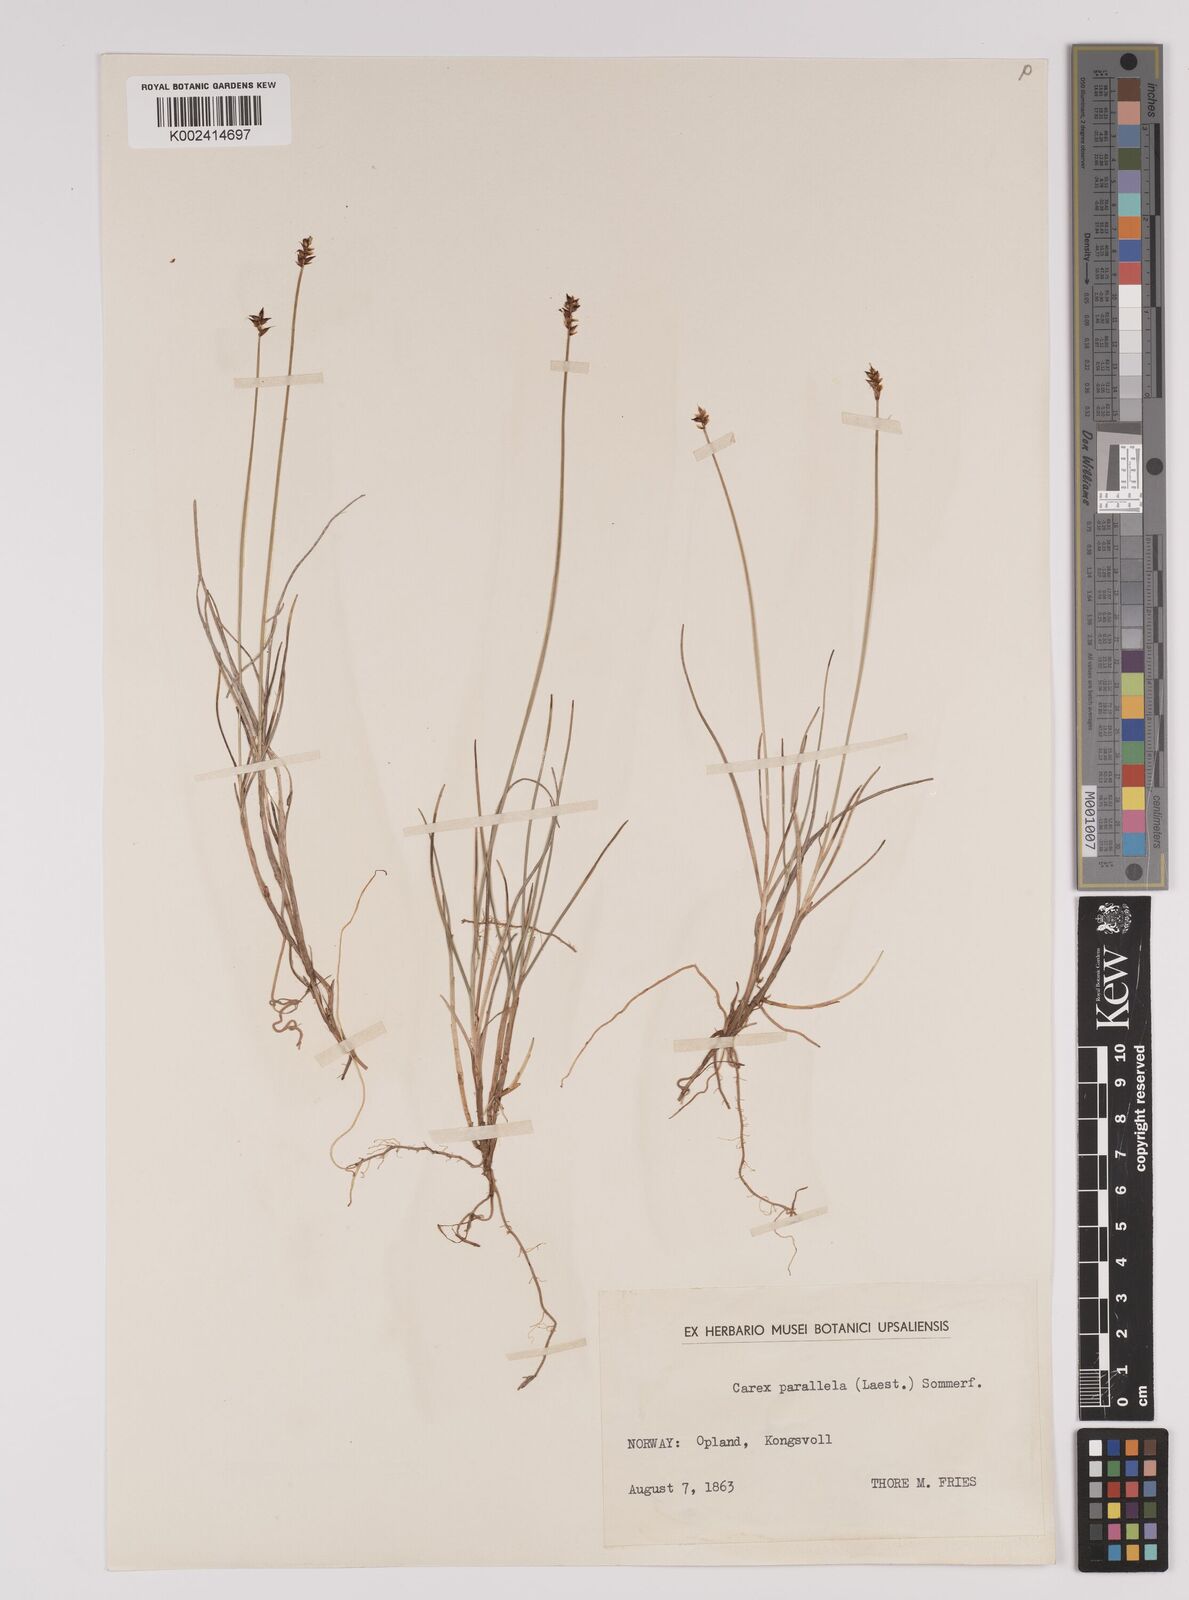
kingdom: Plantae
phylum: Tracheophyta
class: Liliopsida
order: Poales
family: Cyperaceae
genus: Carex
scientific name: Carex parallela
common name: Parallel sedge
